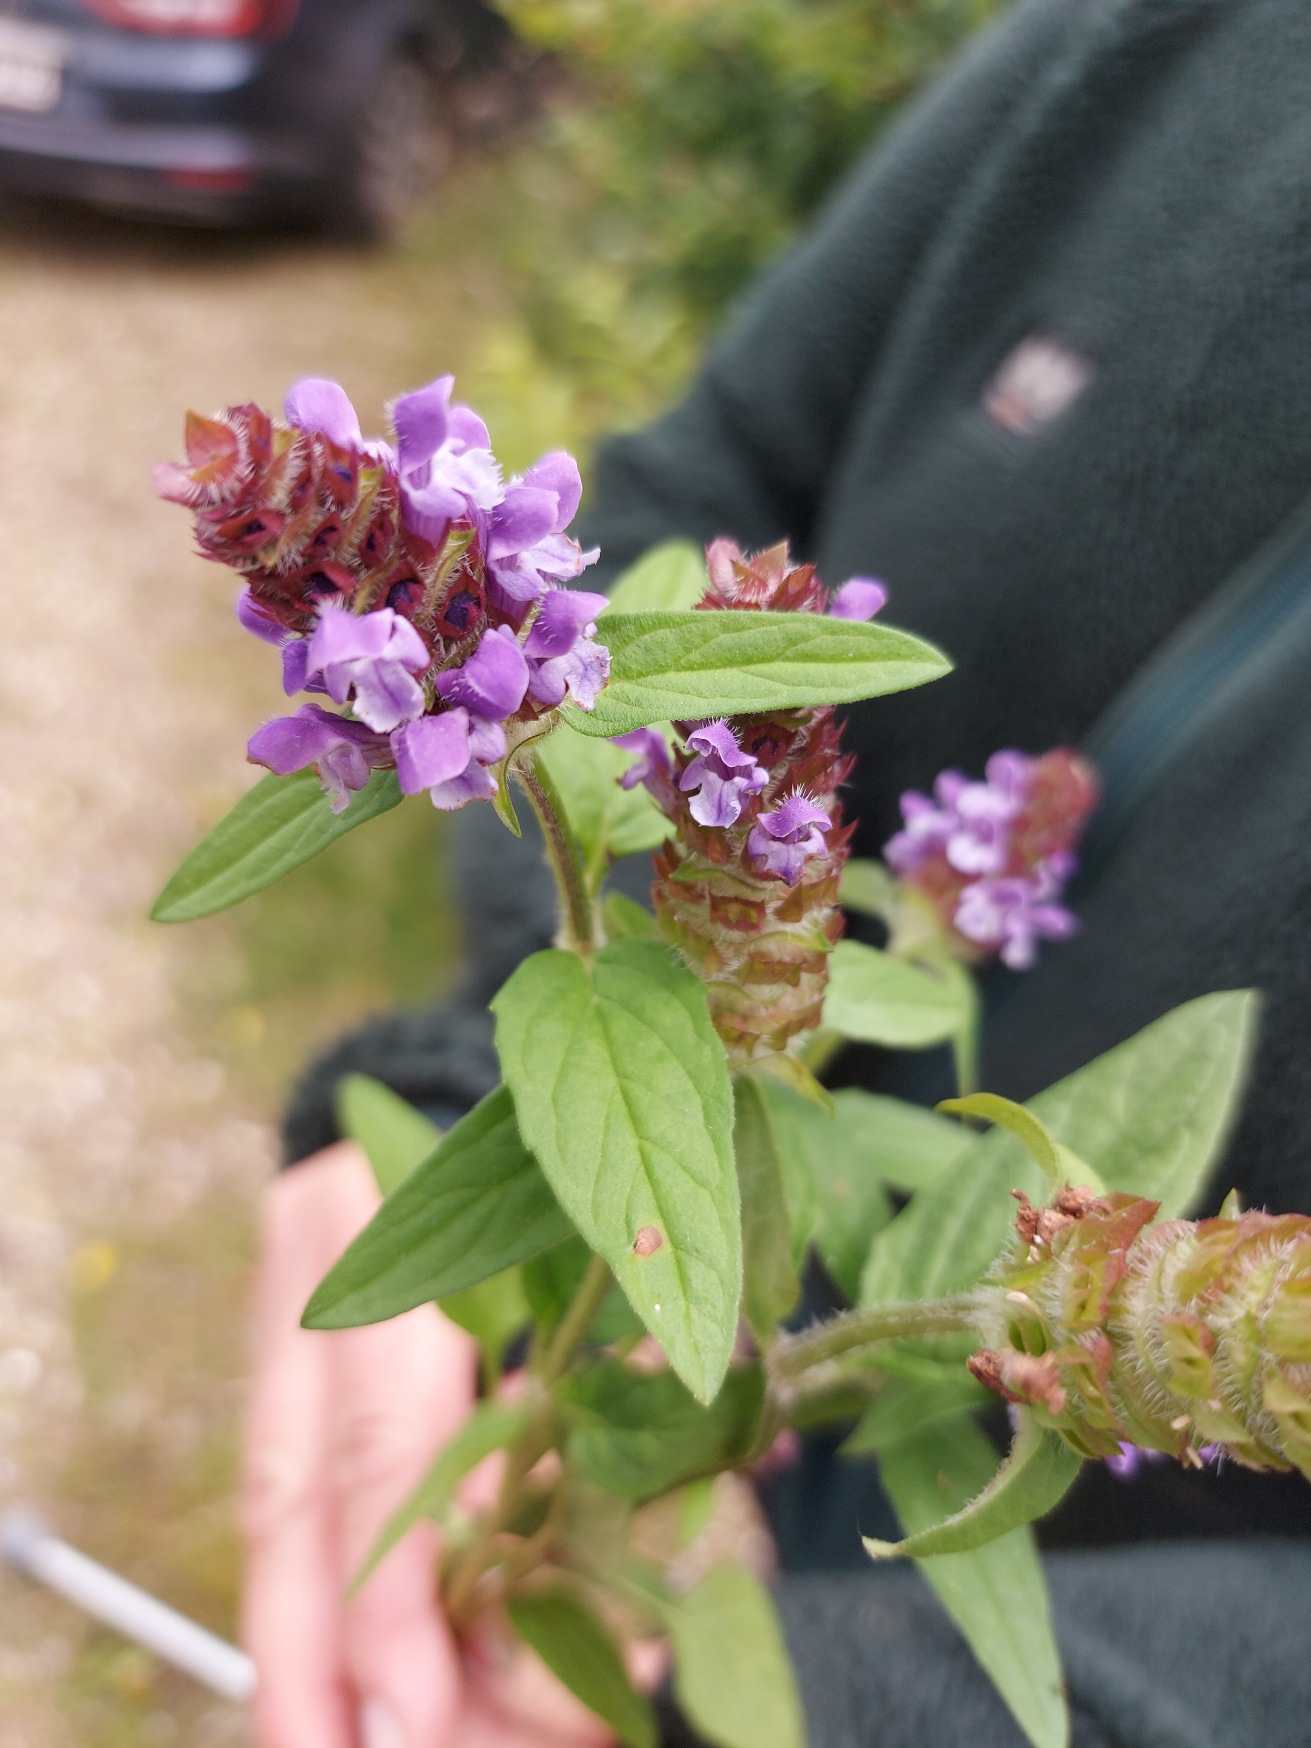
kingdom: Plantae
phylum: Tracheophyta
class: Magnoliopsida
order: Lamiales
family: Lamiaceae
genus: Prunella
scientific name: Prunella vulgaris
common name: Almindelig brunelle
